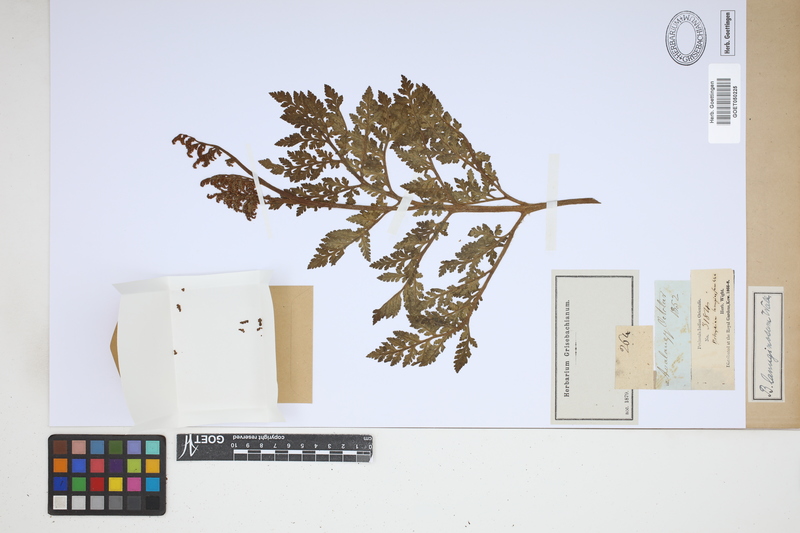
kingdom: Plantae
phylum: Tracheophyta
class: Polypodiopsida
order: Ophioglossales
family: Ophioglossaceae
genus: Japanobotrychum
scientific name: Japanobotrychum lanuginosum
